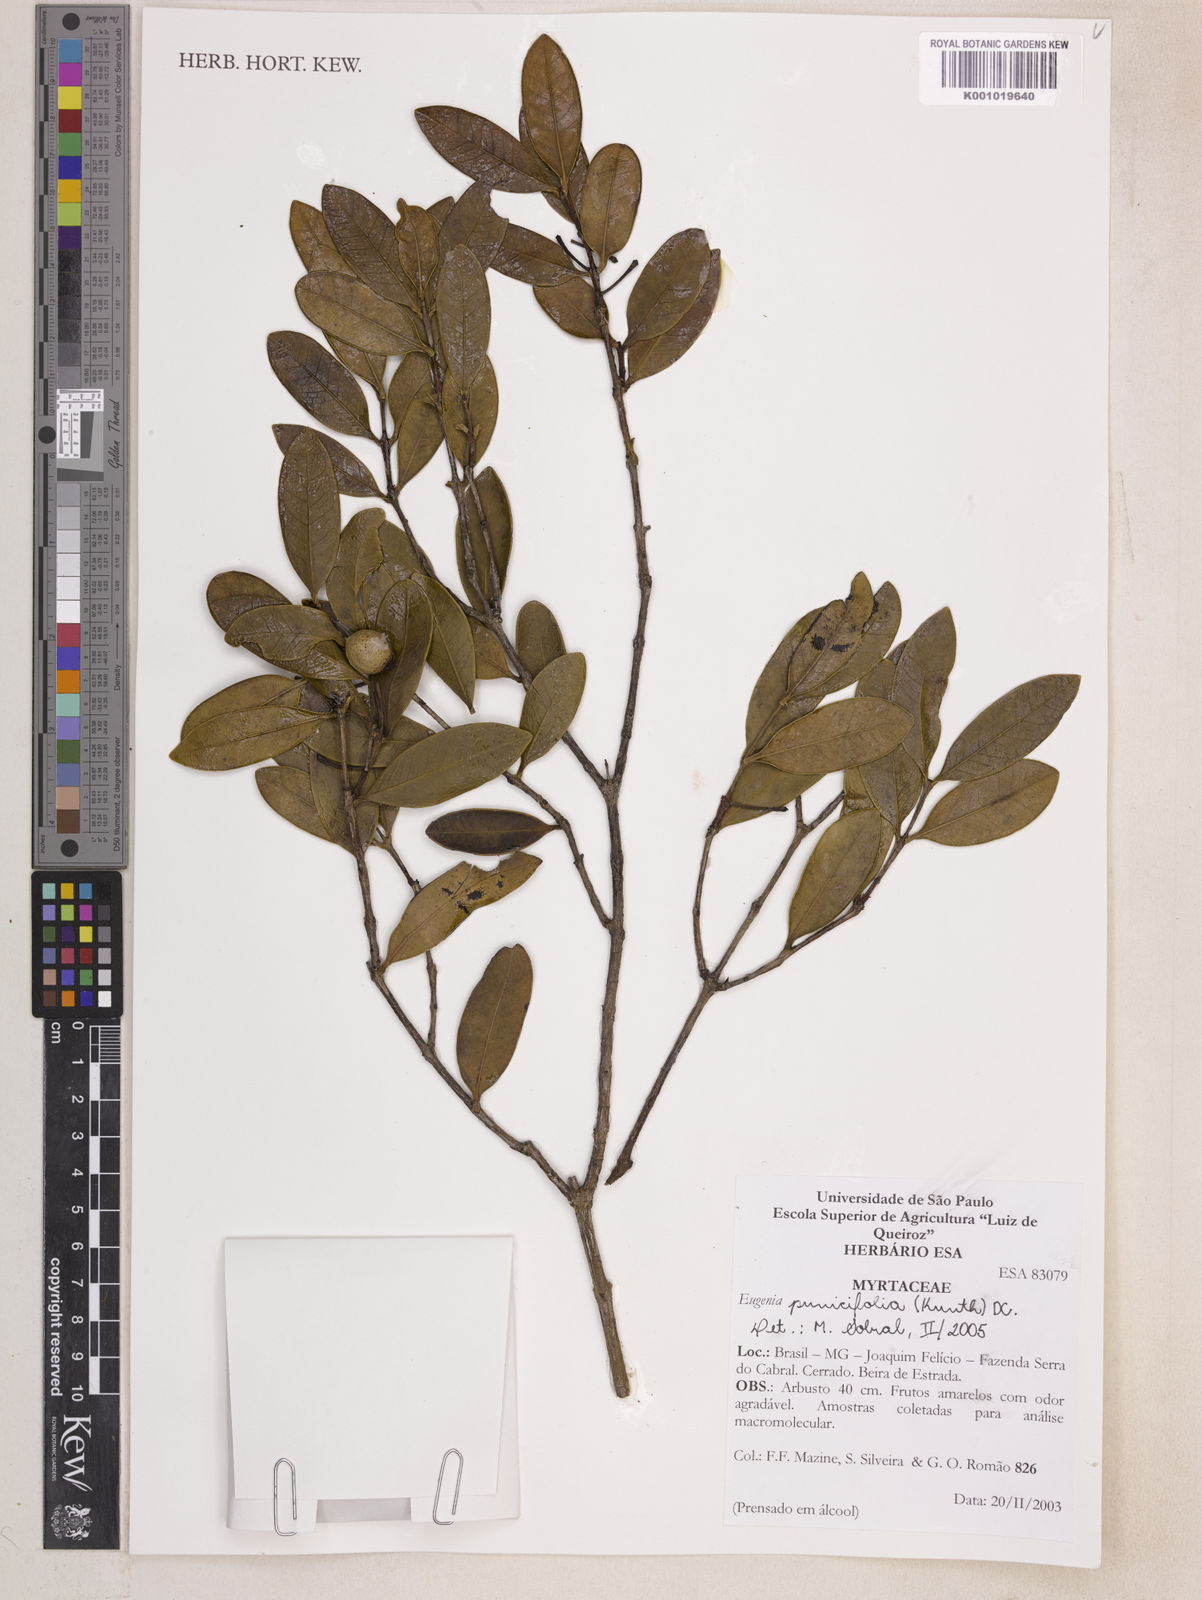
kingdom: Plantae
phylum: Tracheophyta
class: Magnoliopsida
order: Myrtales
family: Myrtaceae
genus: Eugenia
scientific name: Eugenia punicifolia
